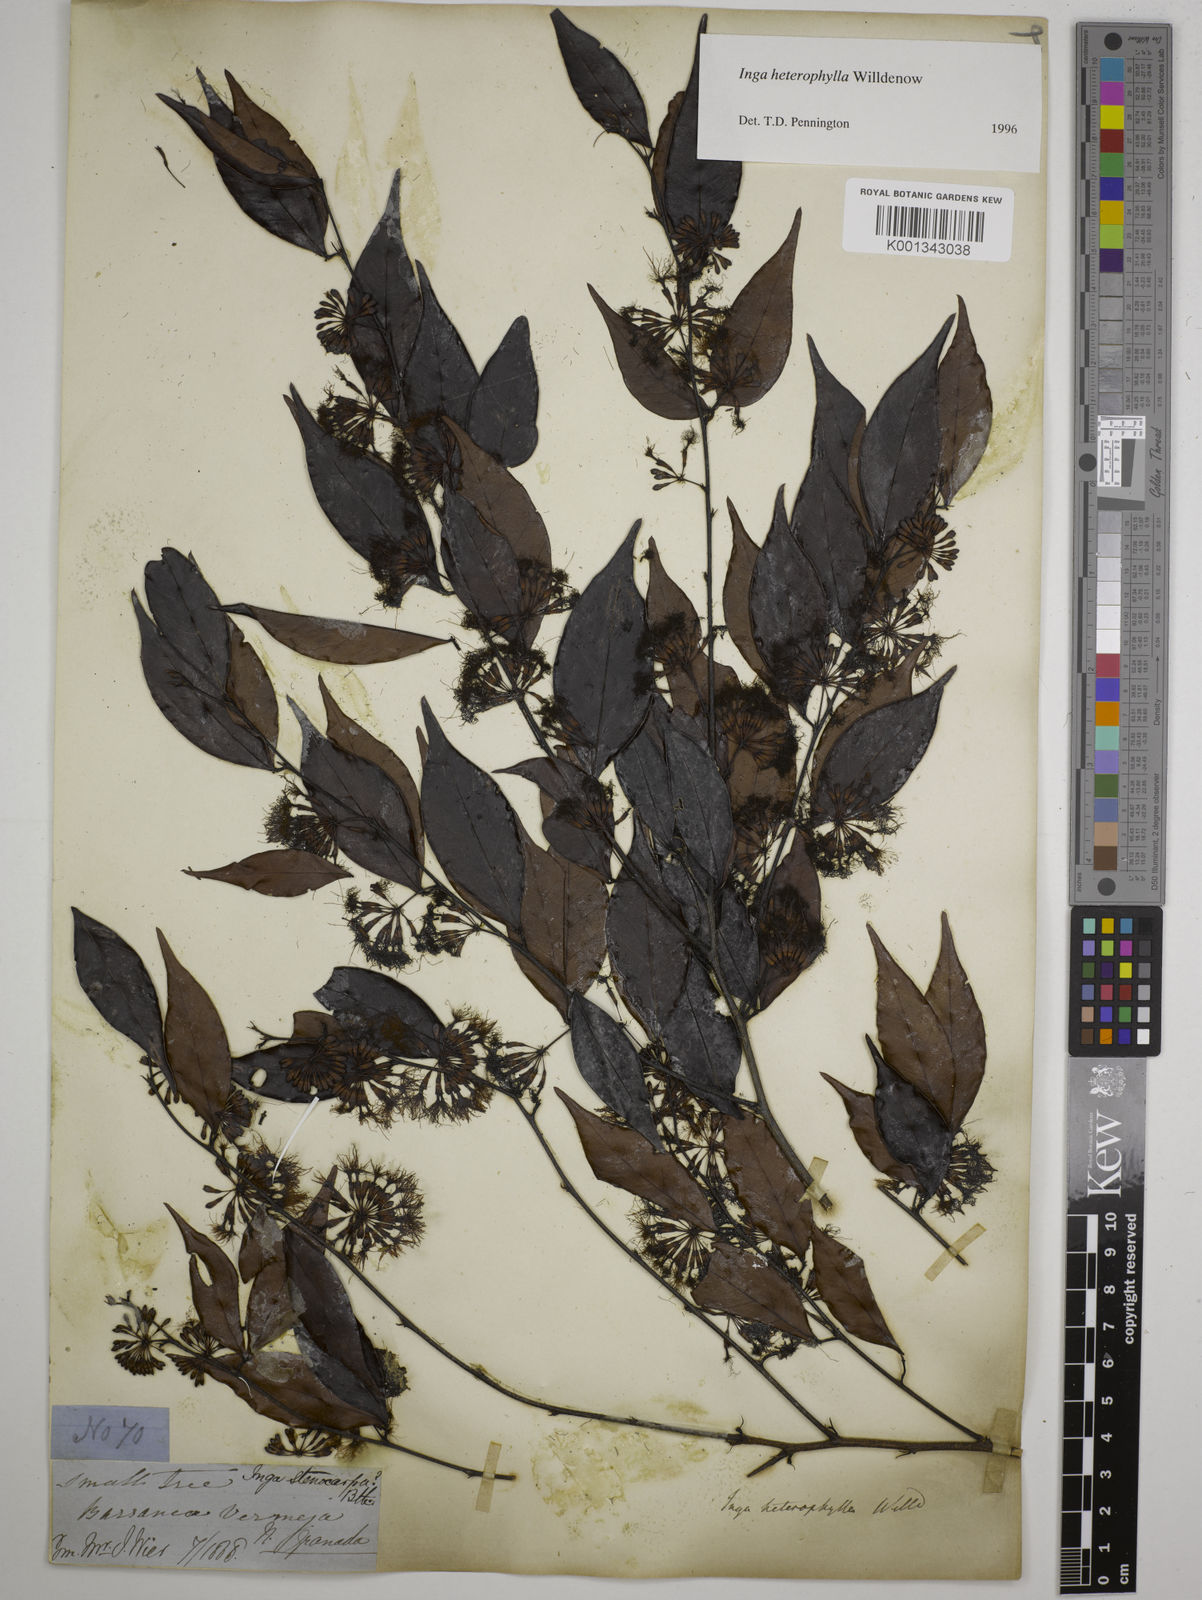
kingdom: Plantae
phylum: Tracheophyta
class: Magnoliopsida
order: Fabales
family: Fabaceae
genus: Inga
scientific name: Inga heterophylla
